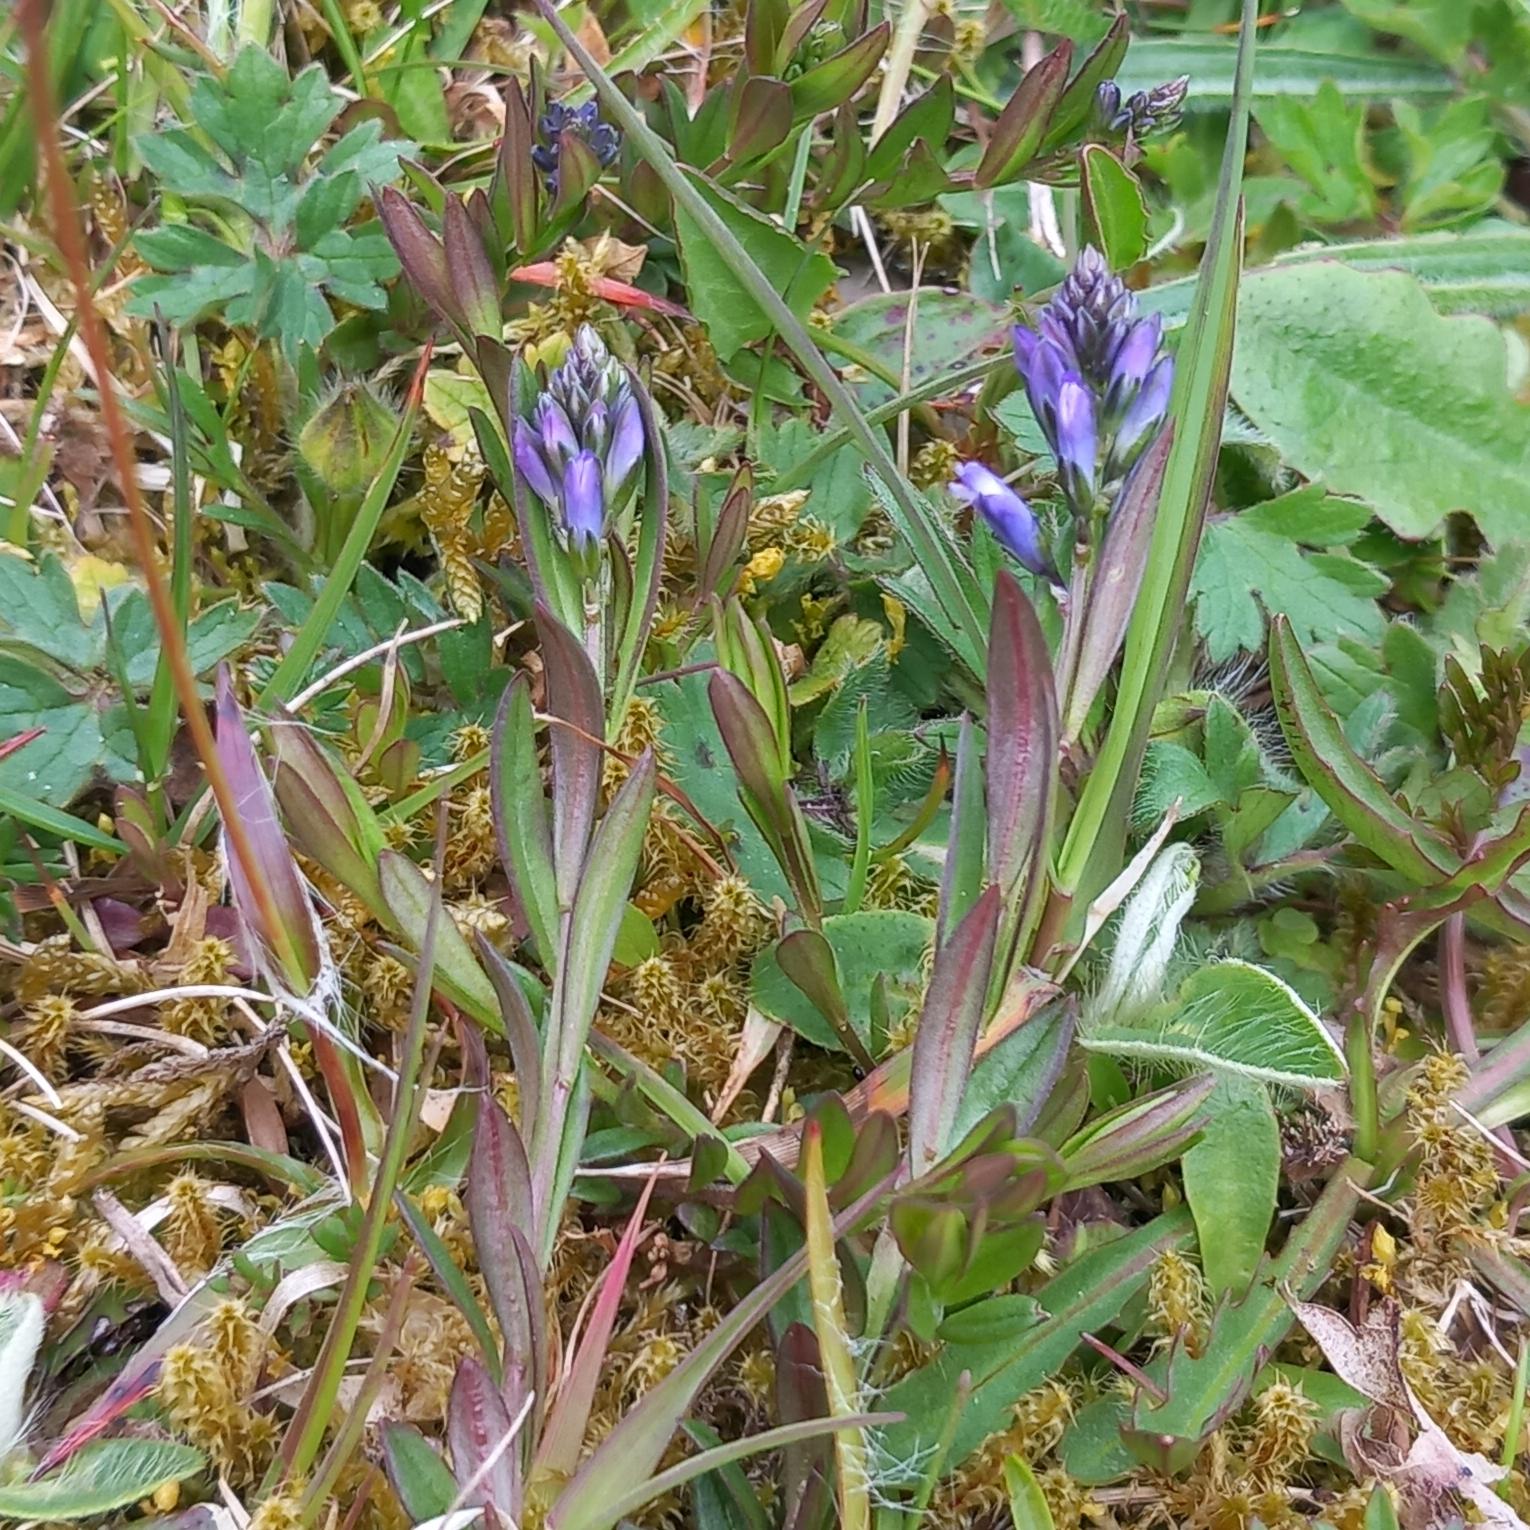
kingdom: Plantae
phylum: Tracheophyta
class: Magnoliopsida
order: Fabales
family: Polygalaceae
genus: Polygala
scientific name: Polygala vulgaris
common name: Almindelig mælkeurt
